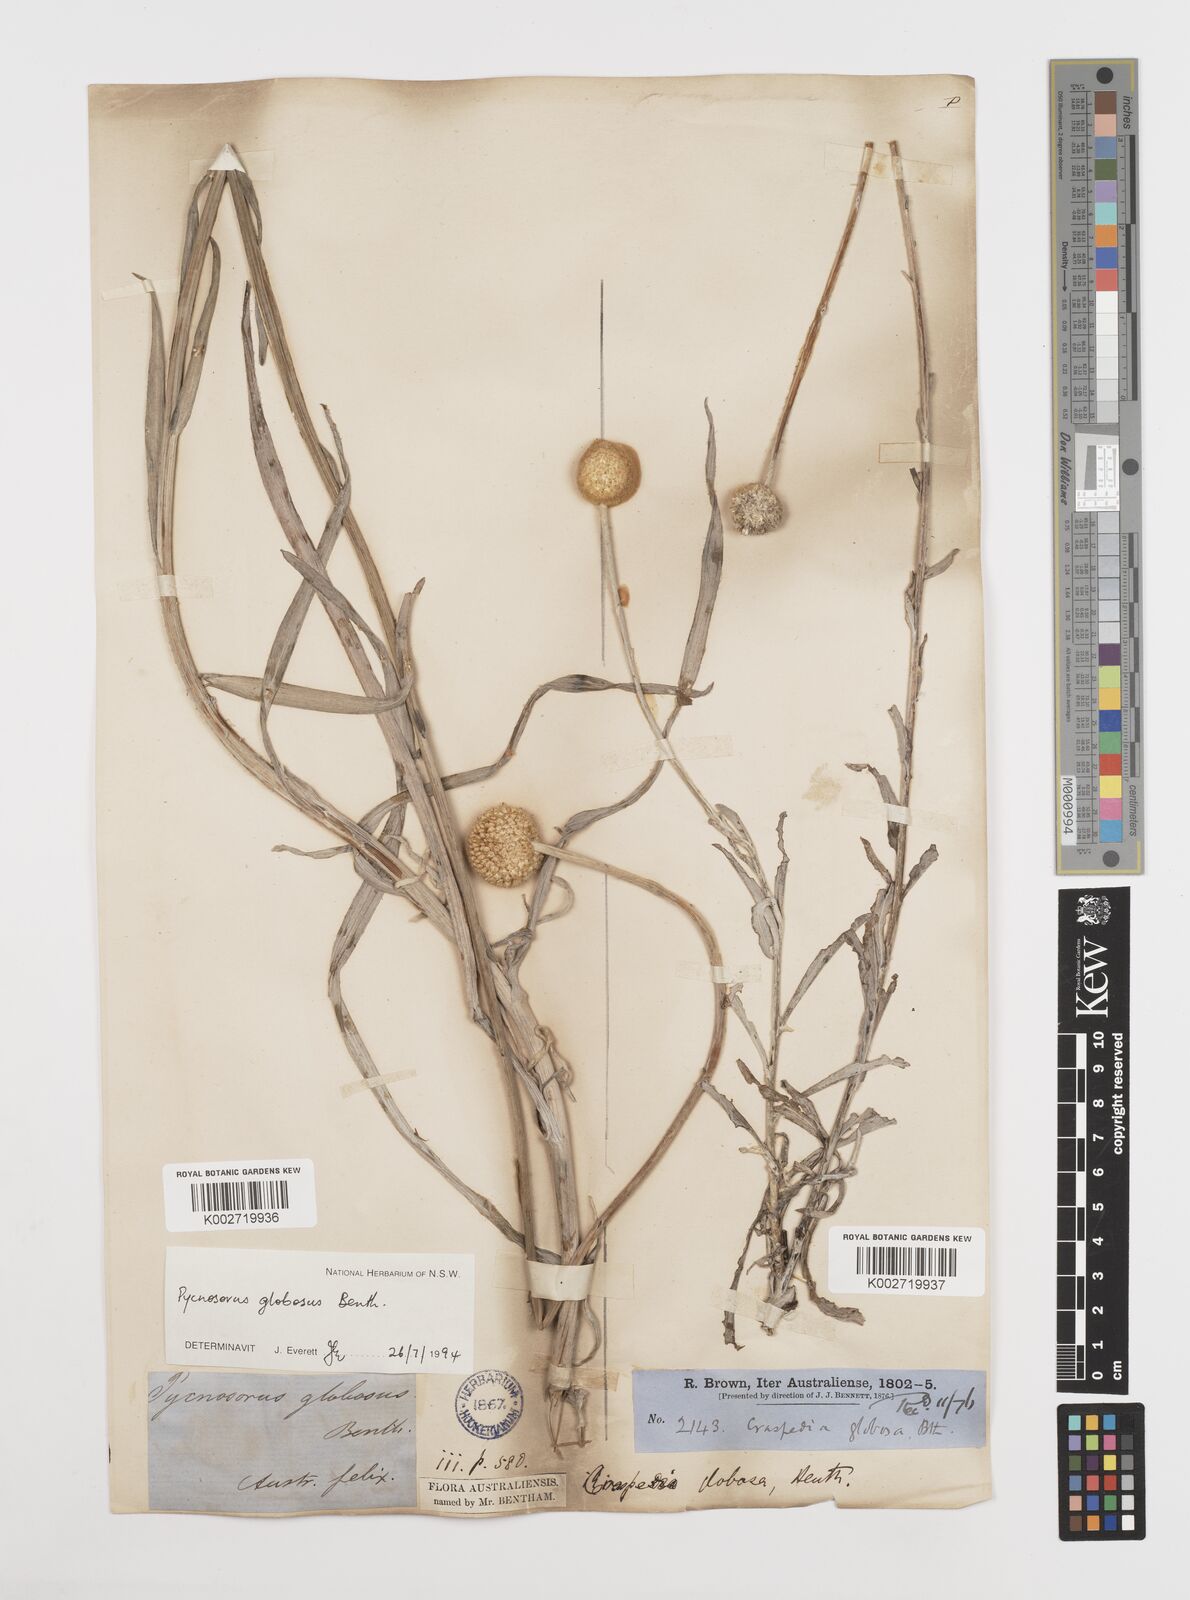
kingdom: Plantae
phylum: Tracheophyta
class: Magnoliopsida
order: Asterales
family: Asteraceae
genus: Pycnosorus
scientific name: Pycnosorus globosus
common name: Drumsticks
